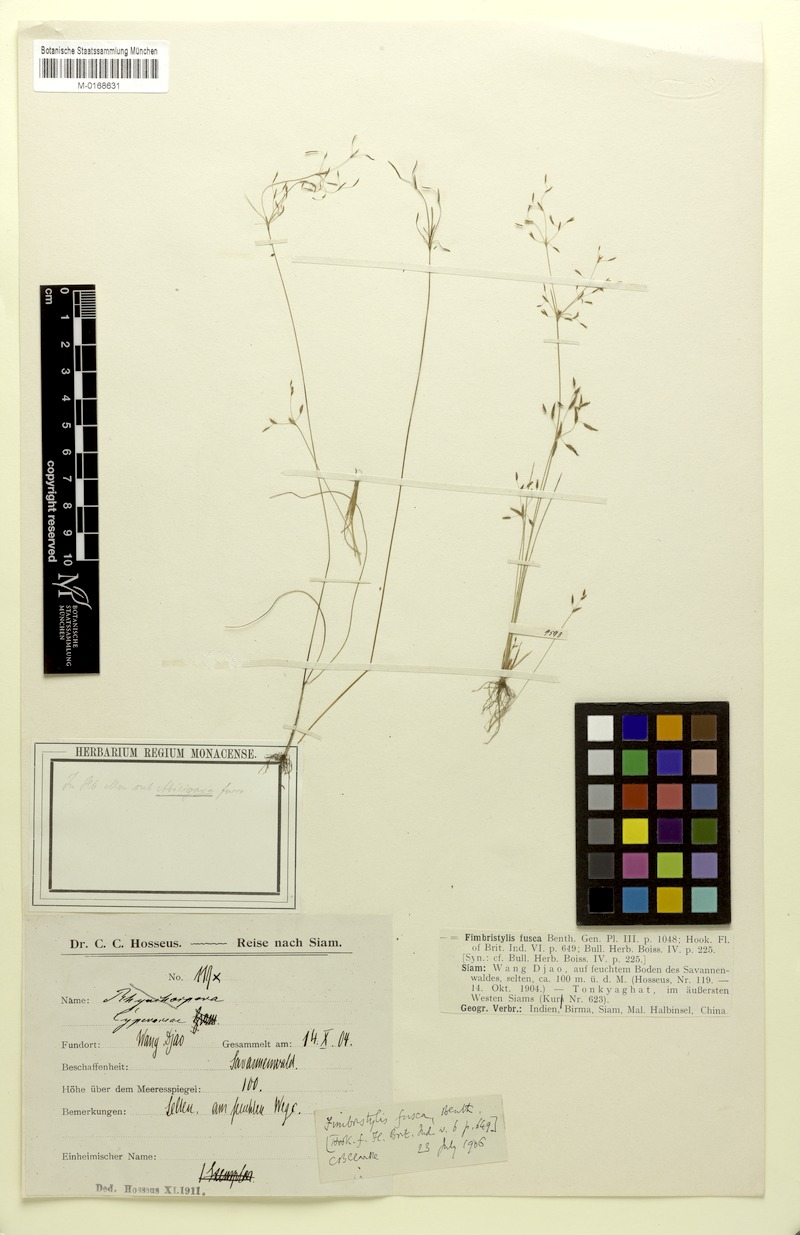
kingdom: Plantae
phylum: Tracheophyta
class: Liliopsida
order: Poales
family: Cyperaceae
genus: Fimbristylis
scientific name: Fimbristylis fusca
